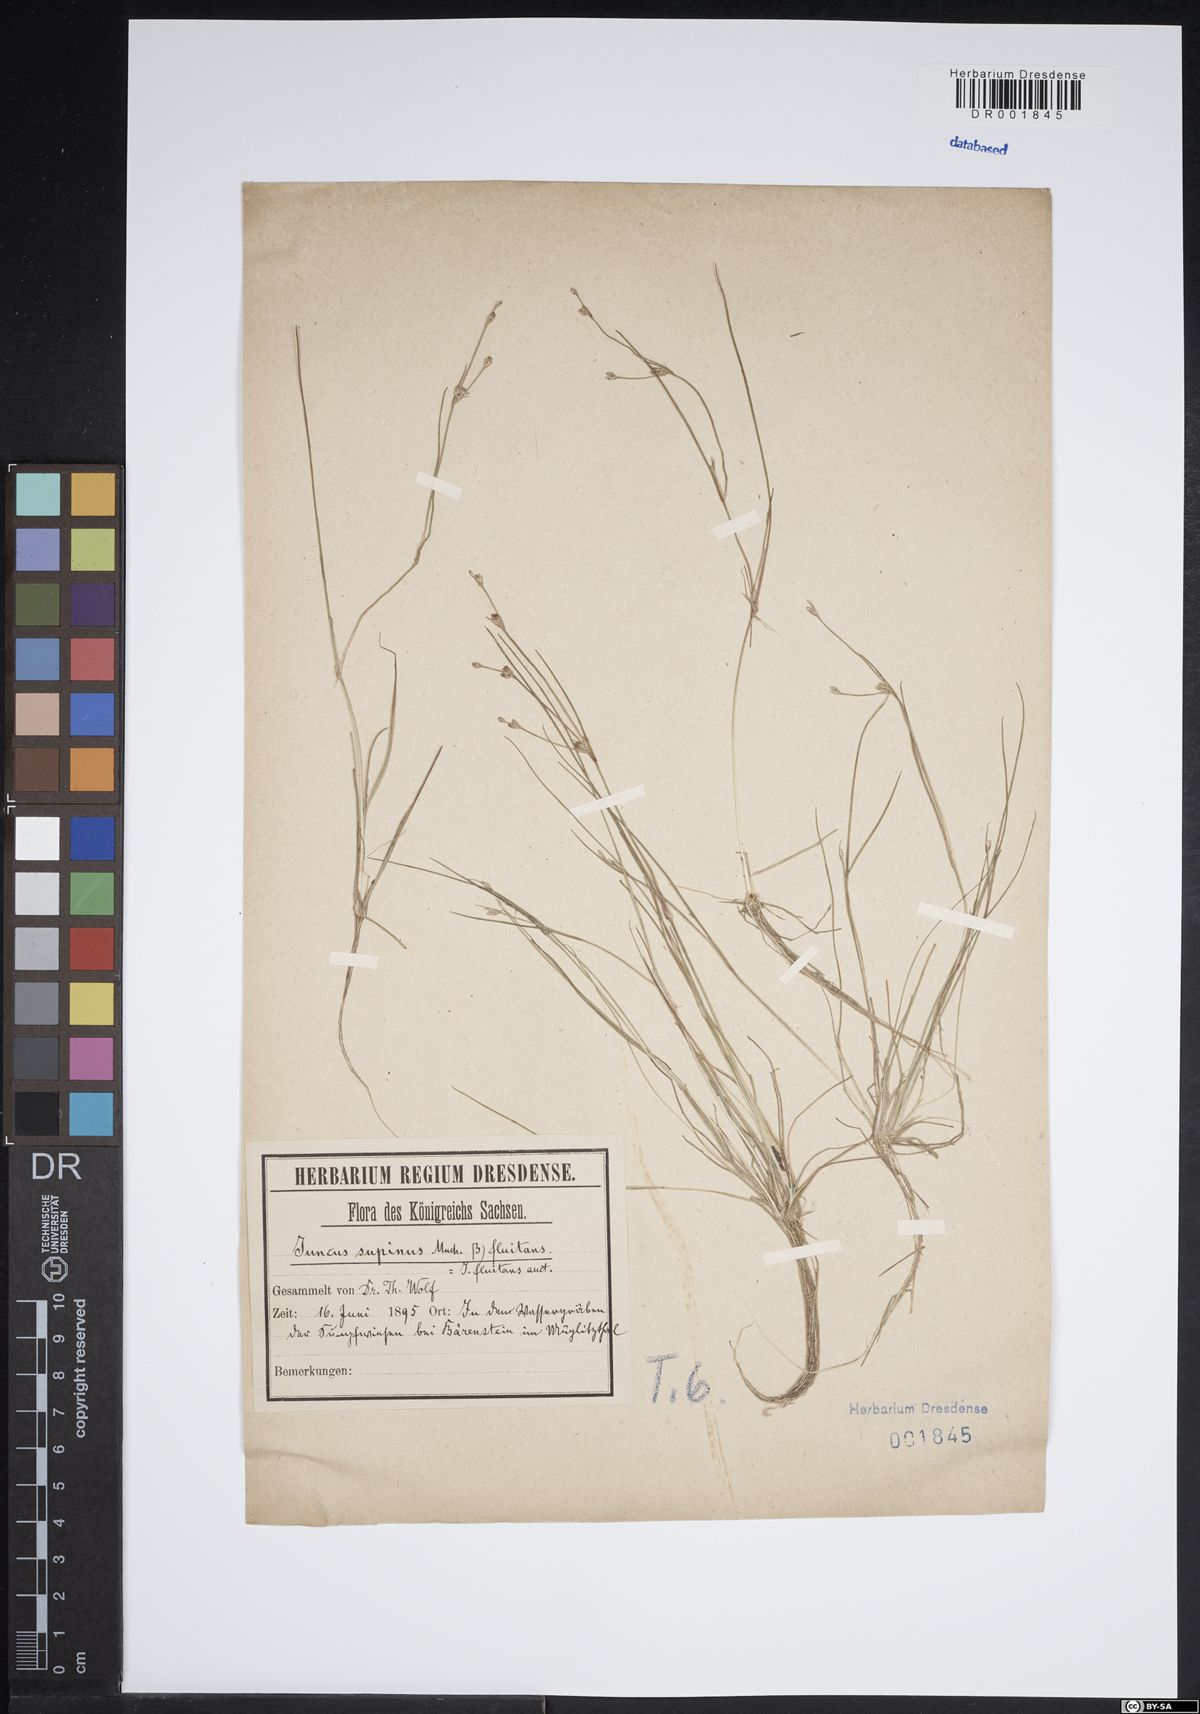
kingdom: Plantae
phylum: Tracheophyta
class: Liliopsida
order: Poales
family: Juncaceae
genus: Juncus
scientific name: Juncus bulbosus
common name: Bulbous rush
